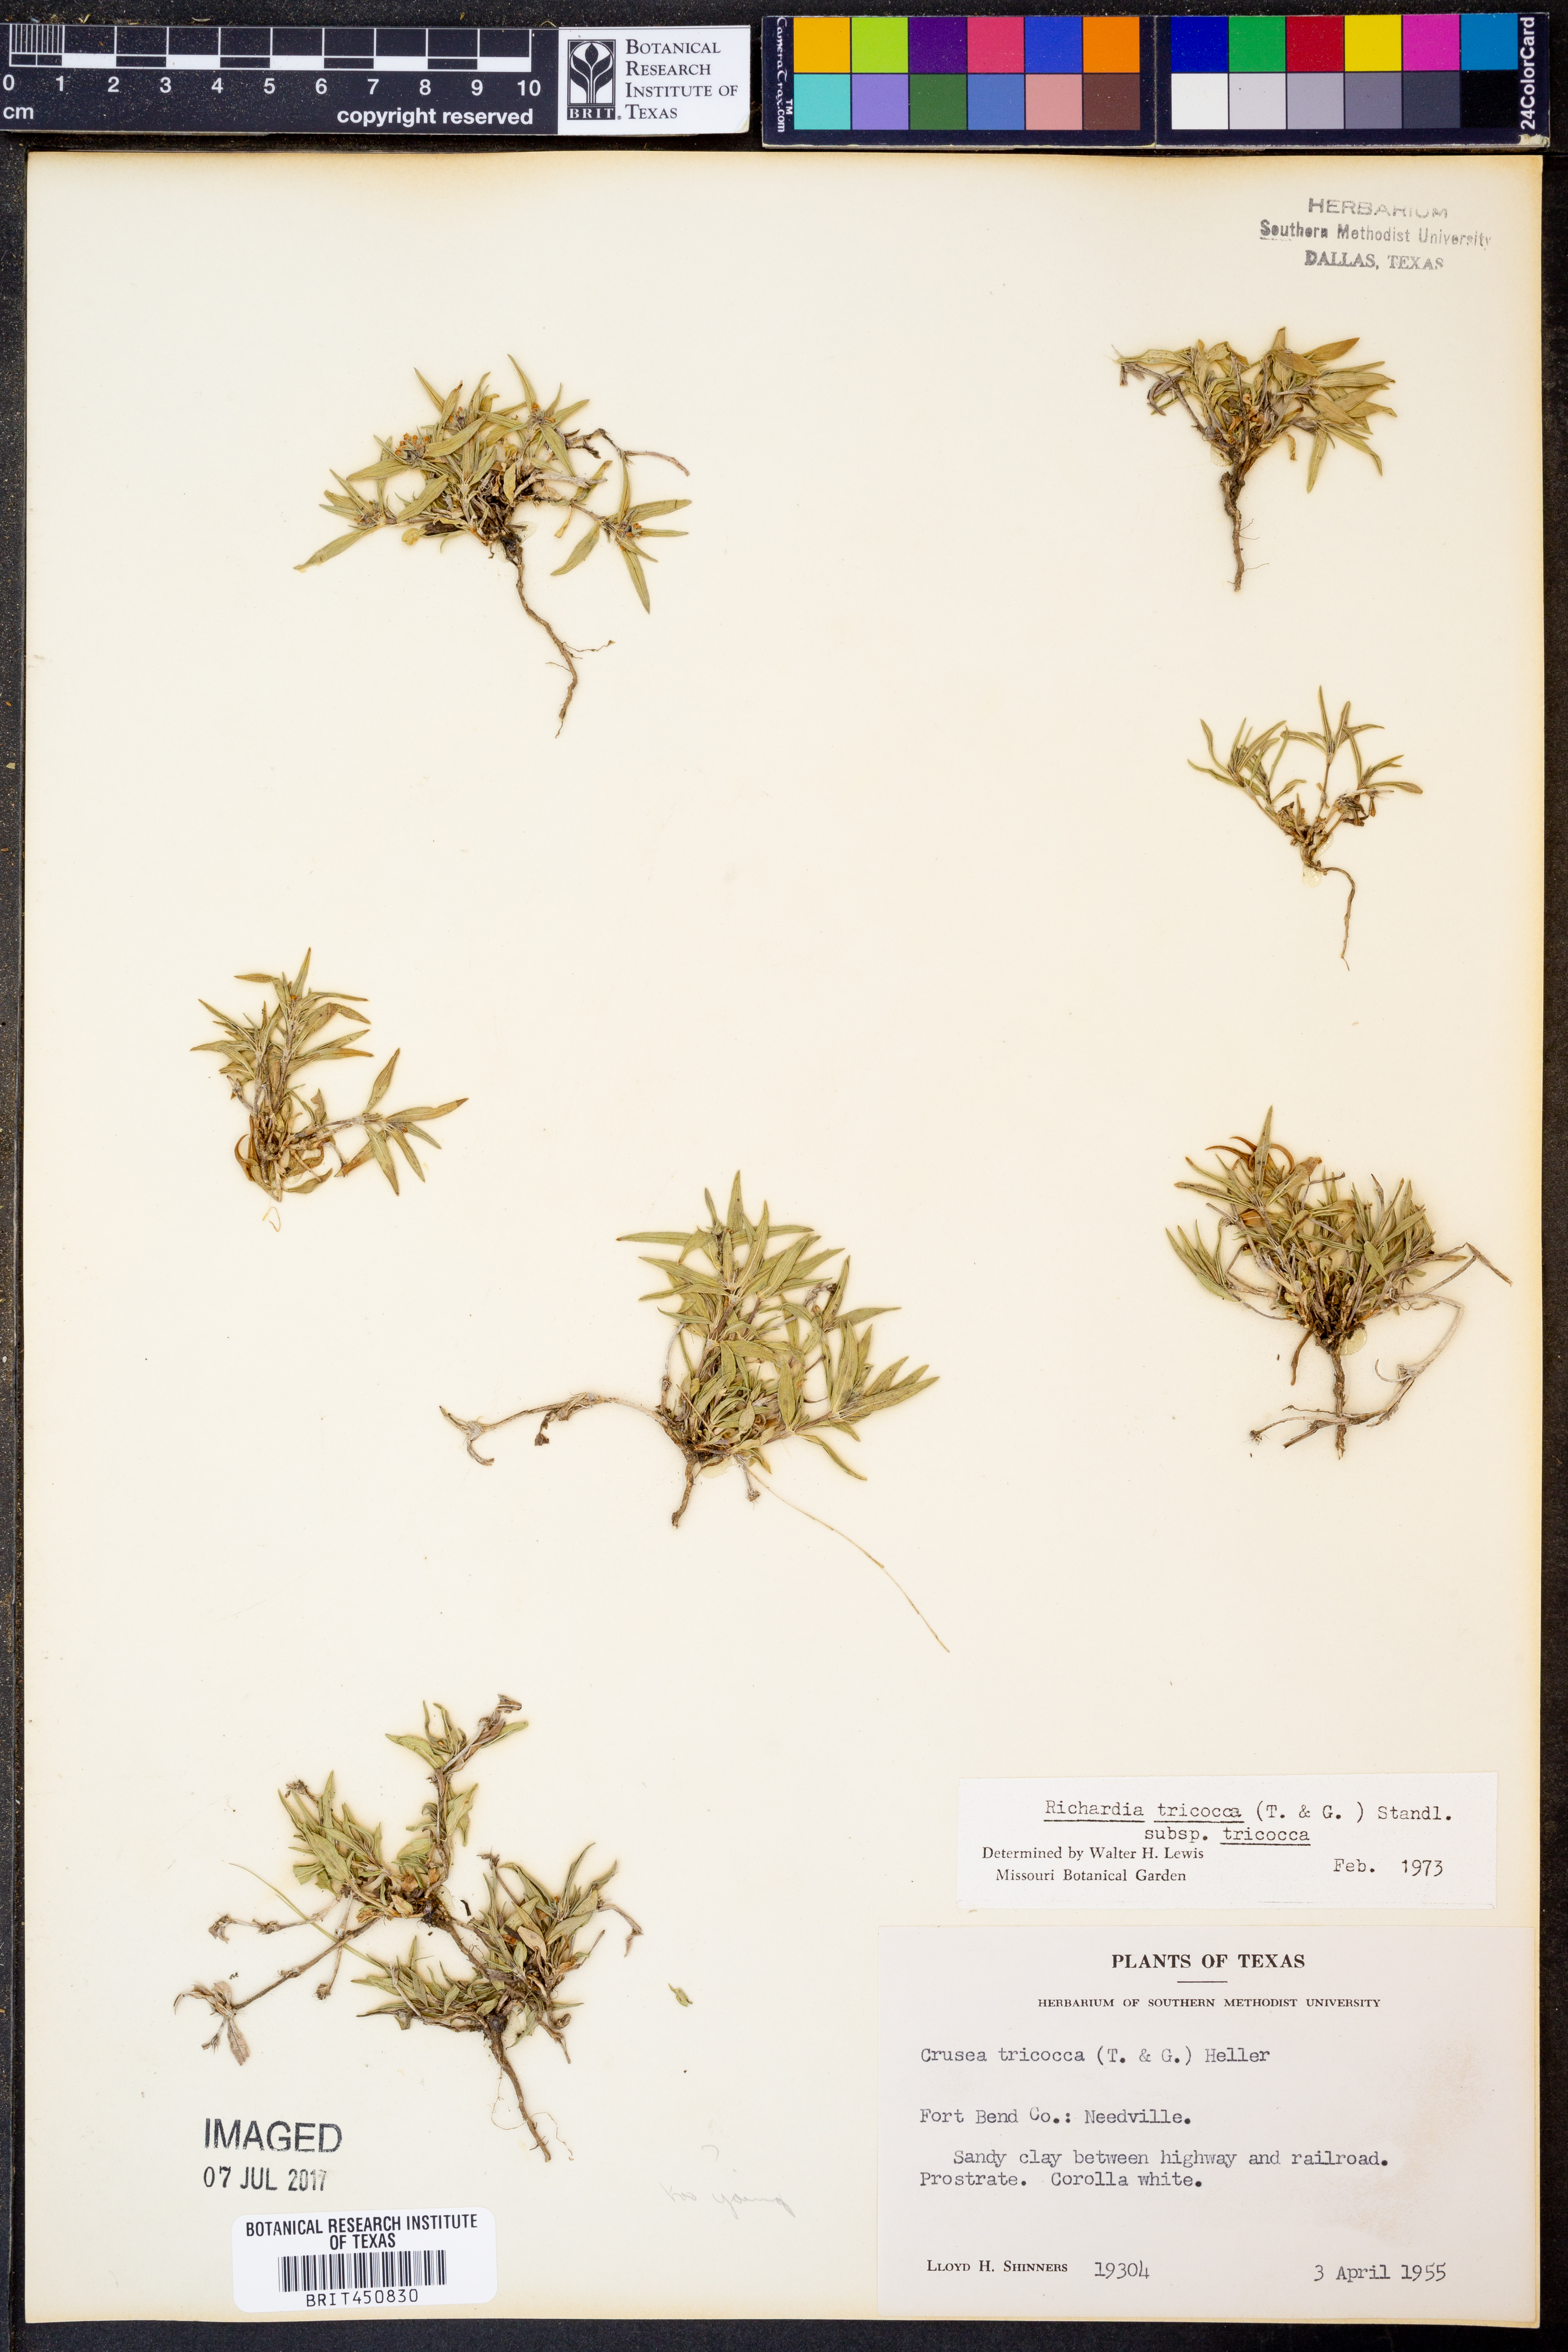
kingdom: Plantae
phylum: Tracheophyta
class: Magnoliopsida
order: Gentianales
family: Rubiaceae
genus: Richardia
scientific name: Richardia tricocca
